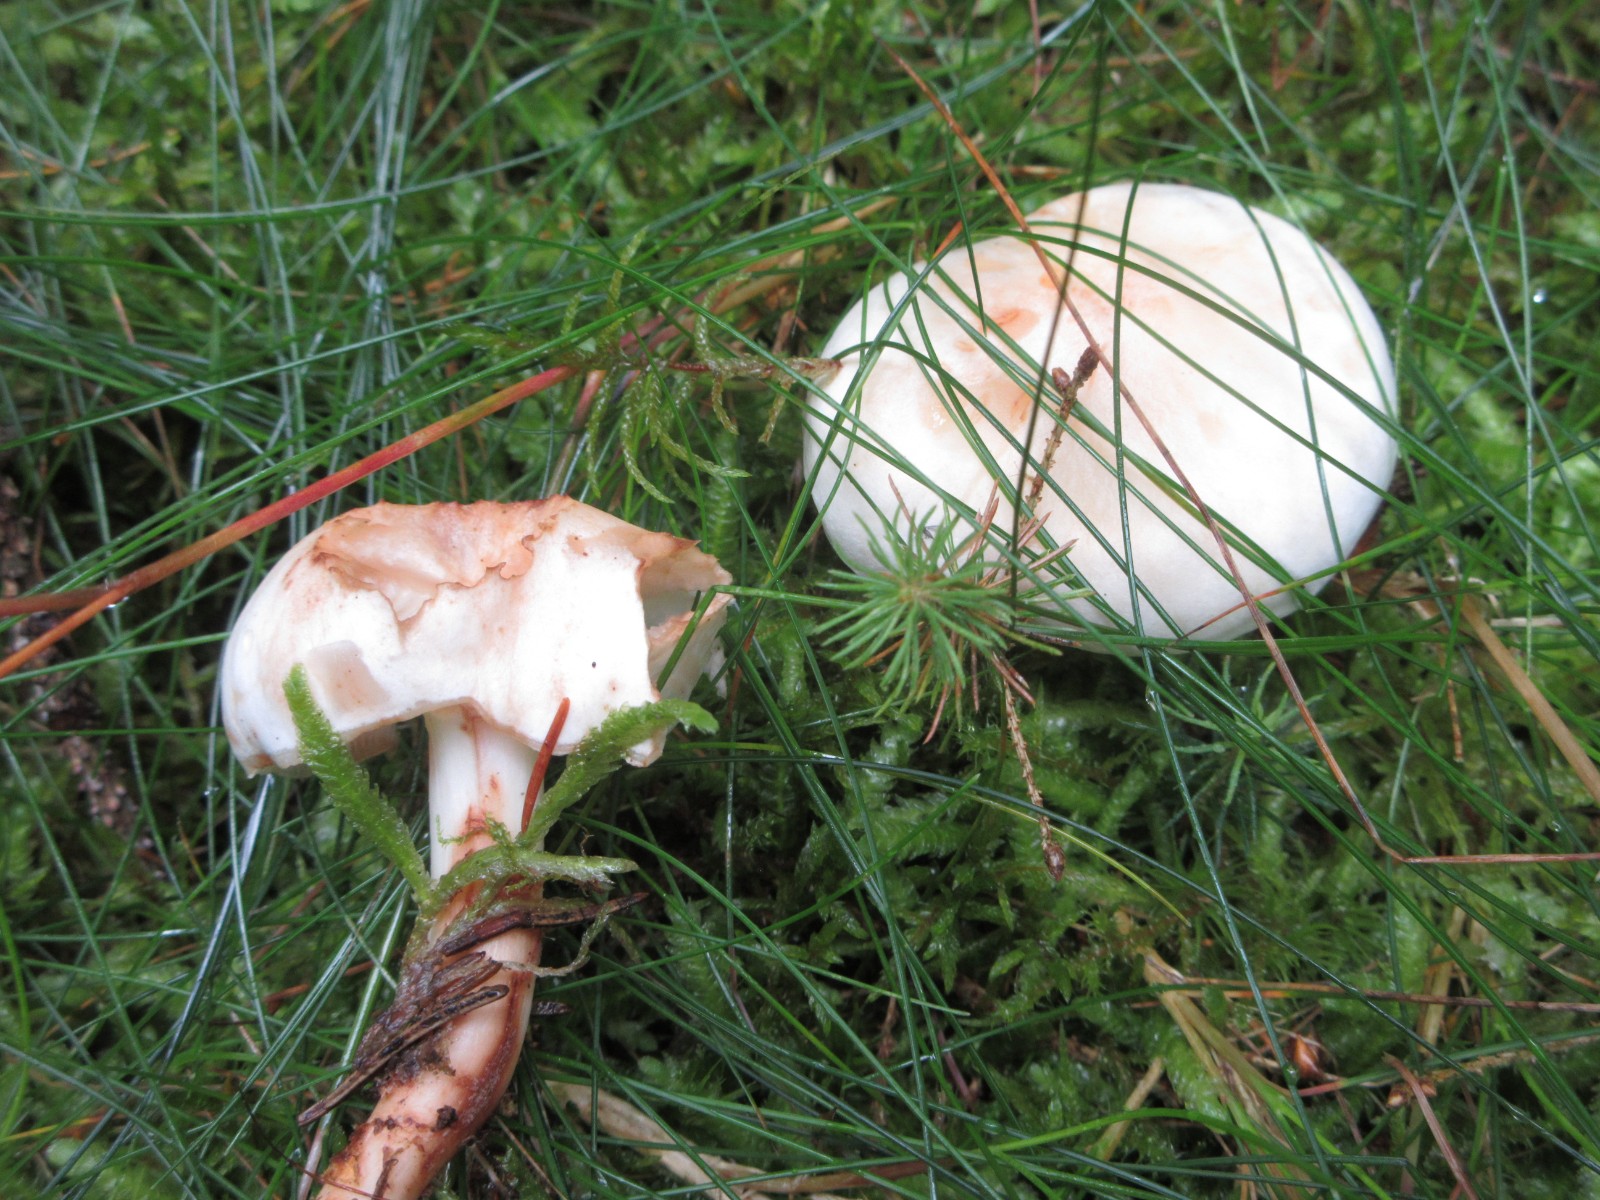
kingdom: Fungi
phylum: Basidiomycota
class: Agaricomycetes
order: Agaricales
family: Omphalotaceae
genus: Rhodocollybia
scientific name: Rhodocollybia maculata
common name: plettet fladhat
